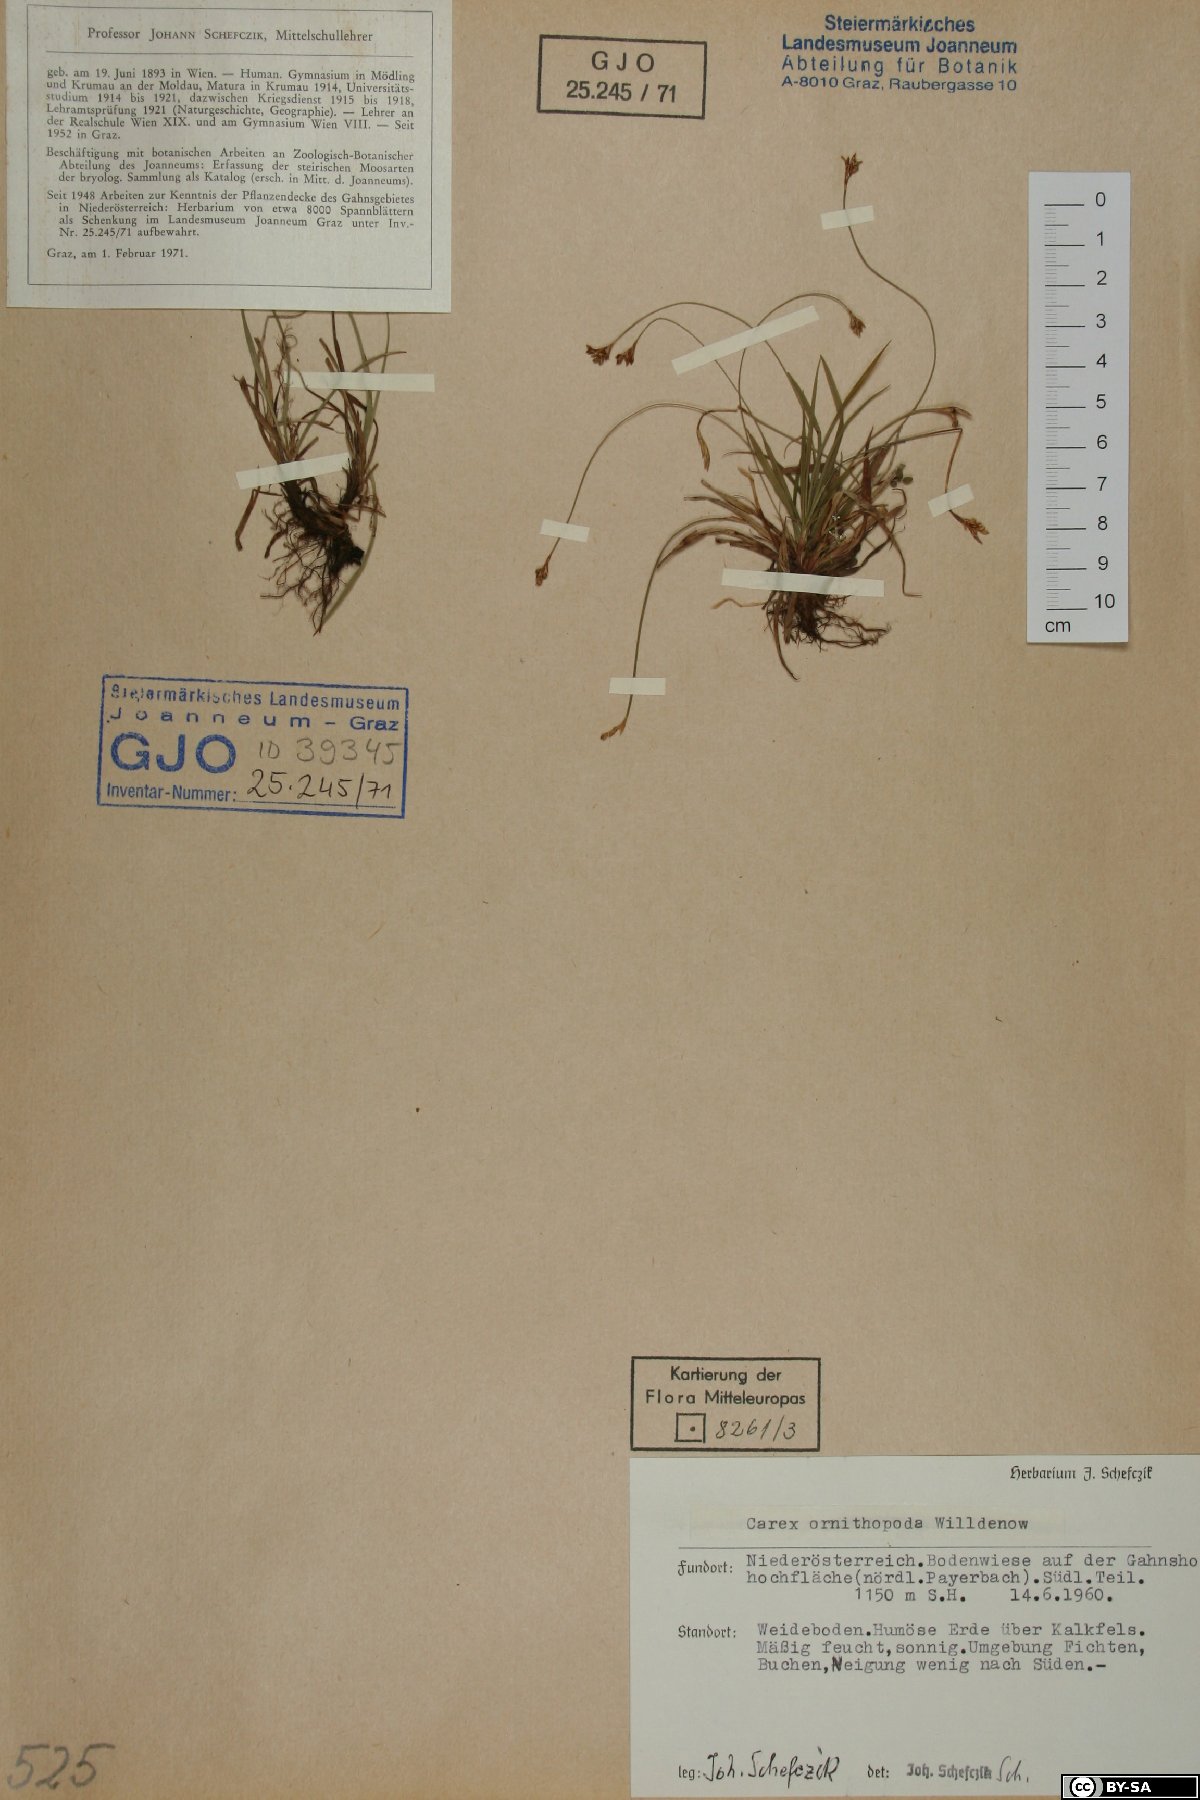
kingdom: Plantae
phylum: Tracheophyta
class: Liliopsida
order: Poales
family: Cyperaceae
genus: Carex
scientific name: Carex ornithopoda
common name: Bird's-foot sedge
